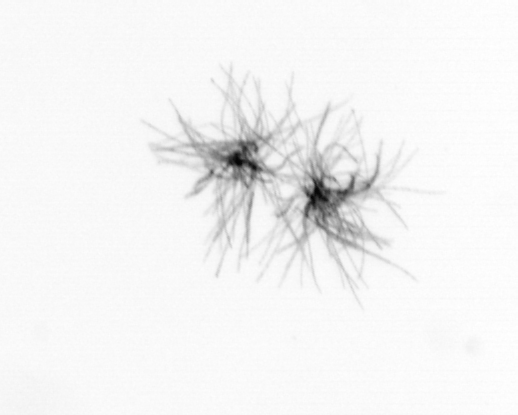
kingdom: Bacteria
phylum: Cyanobacteria
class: Cyanobacteriia
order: Cyanobacteriales
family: Microcoleaceae
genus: Trichodesmium
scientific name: Trichodesmium
